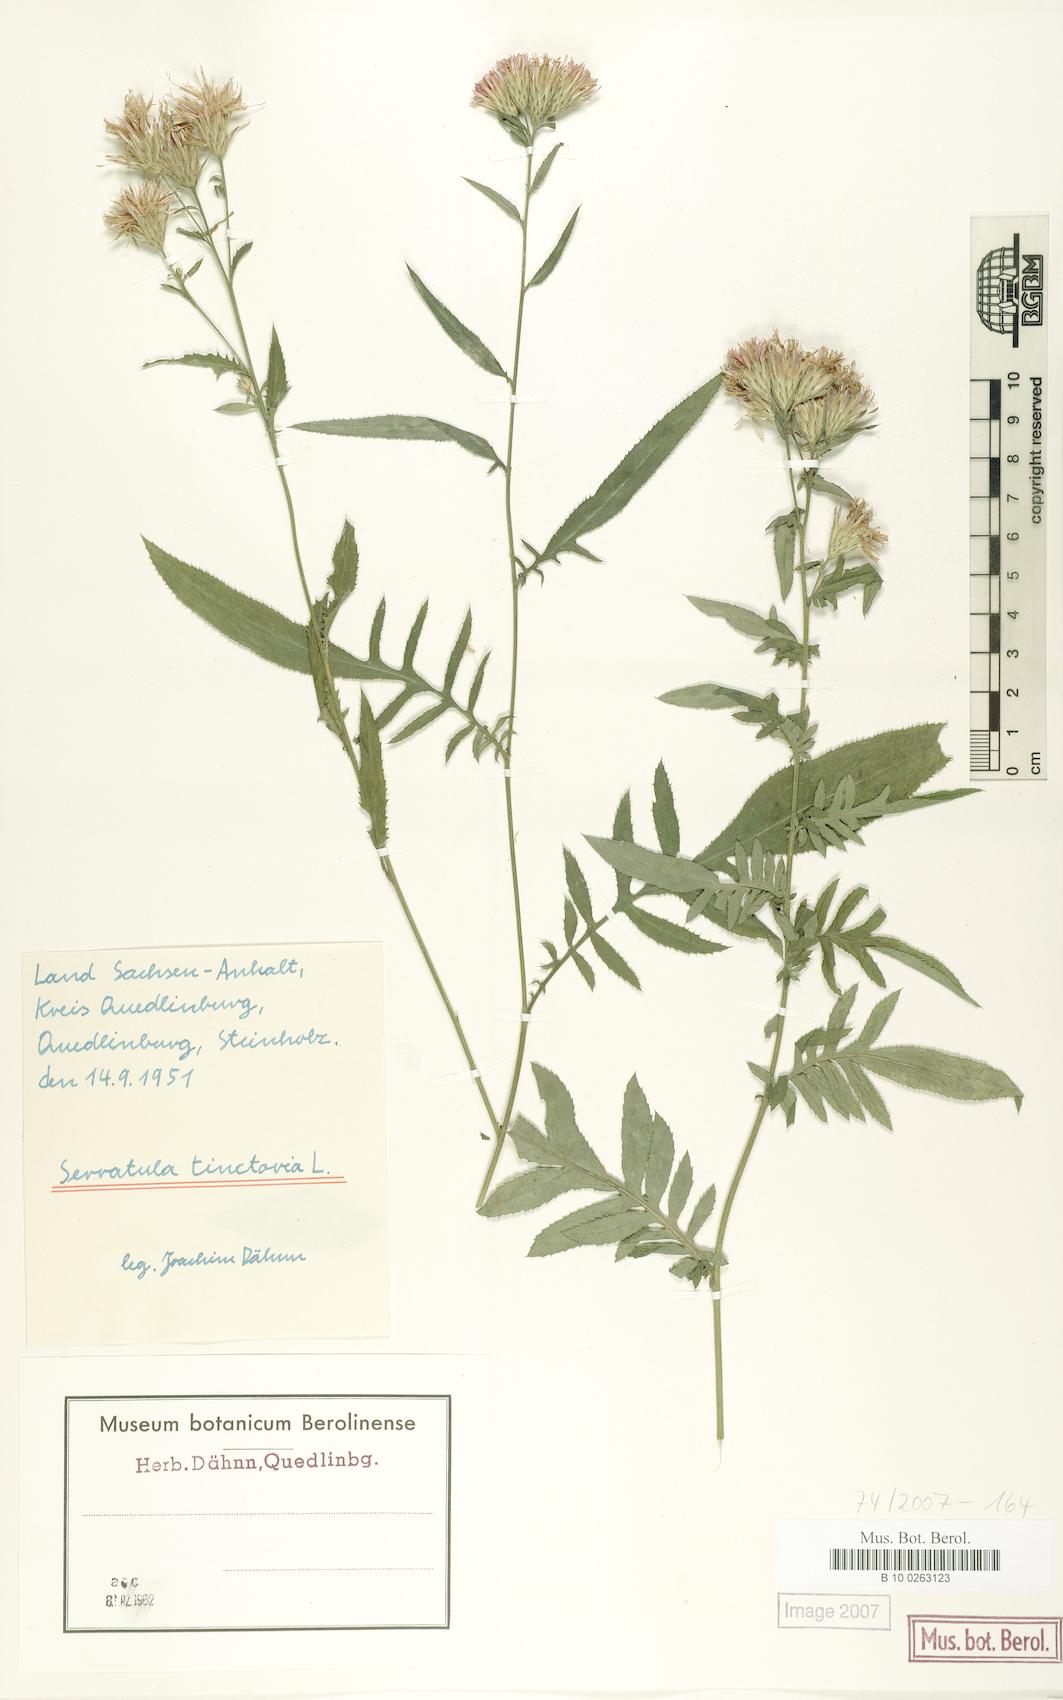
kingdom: Plantae
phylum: Tracheophyta
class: Magnoliopsida
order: Asterales
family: Asteraceae
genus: Serratula
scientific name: Serratula tinctoria
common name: Saw-wort
